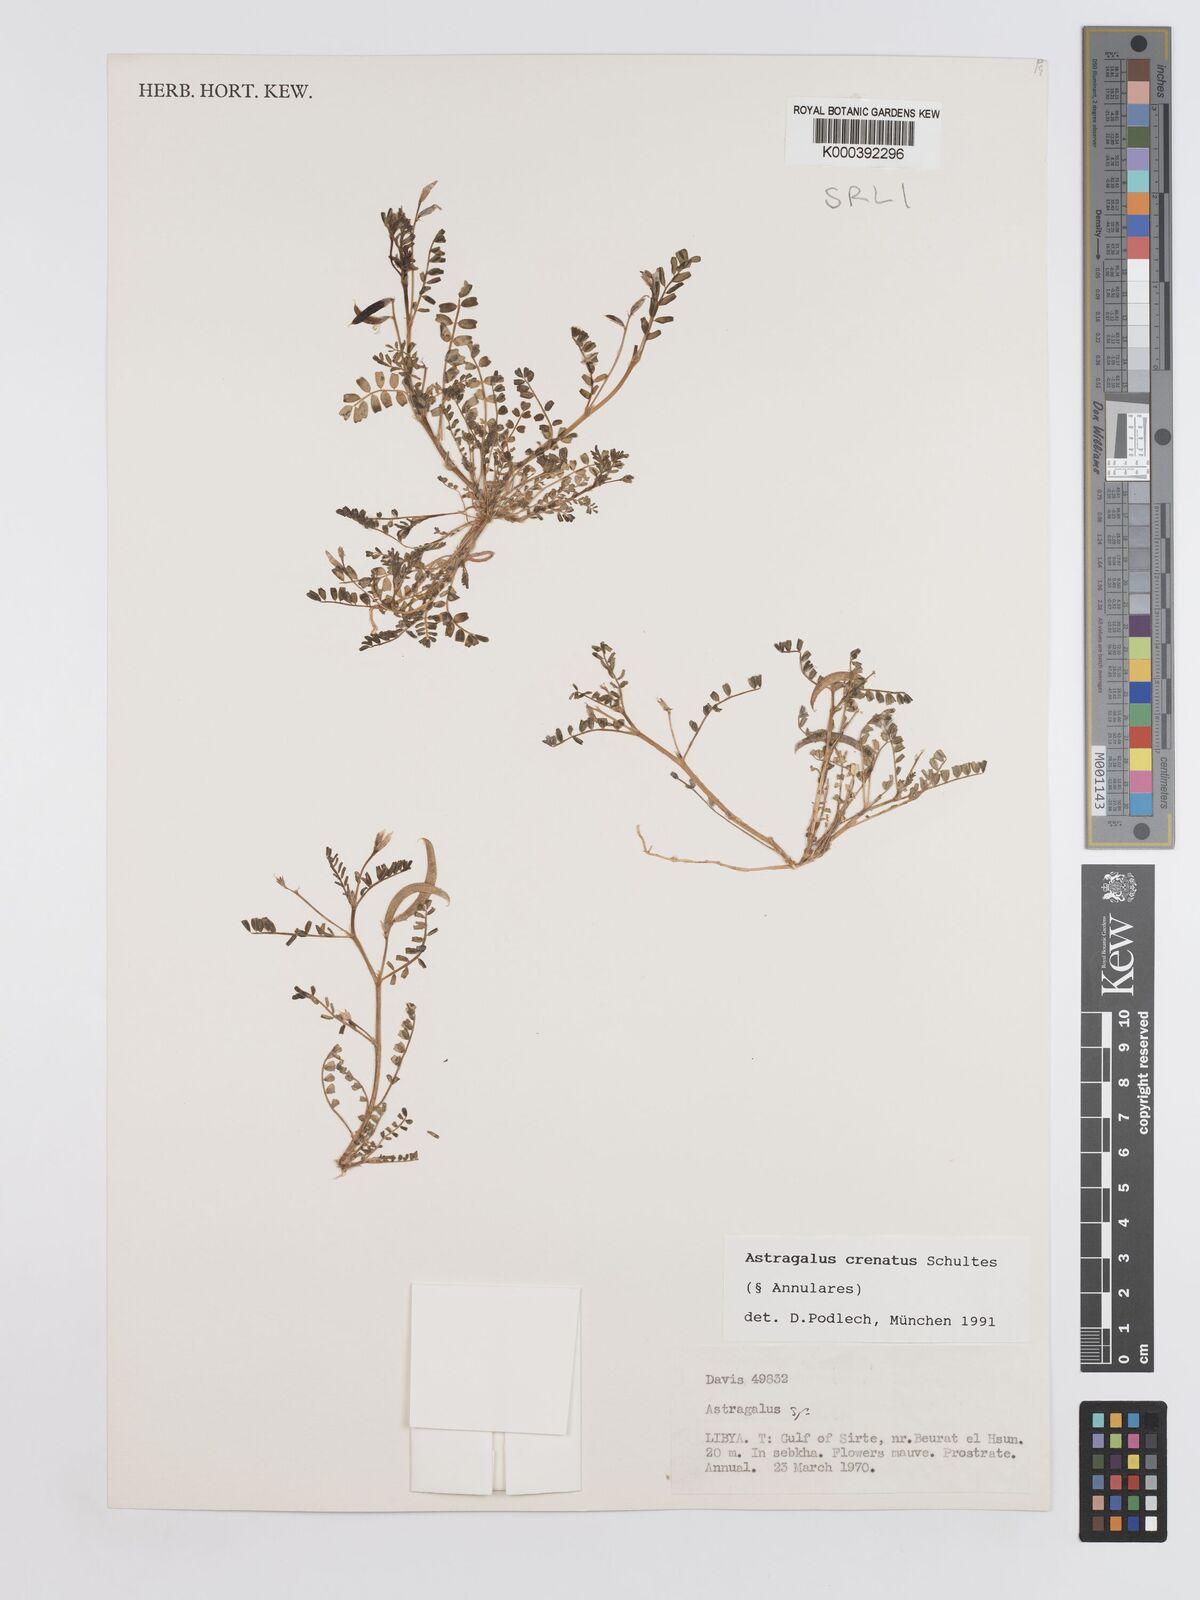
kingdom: Plantae
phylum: Tracheophyta
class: Magnoliopsida
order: Fabales
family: Fabaceae
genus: Astragalus
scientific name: Astragalus crenatus
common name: Milk vetch
